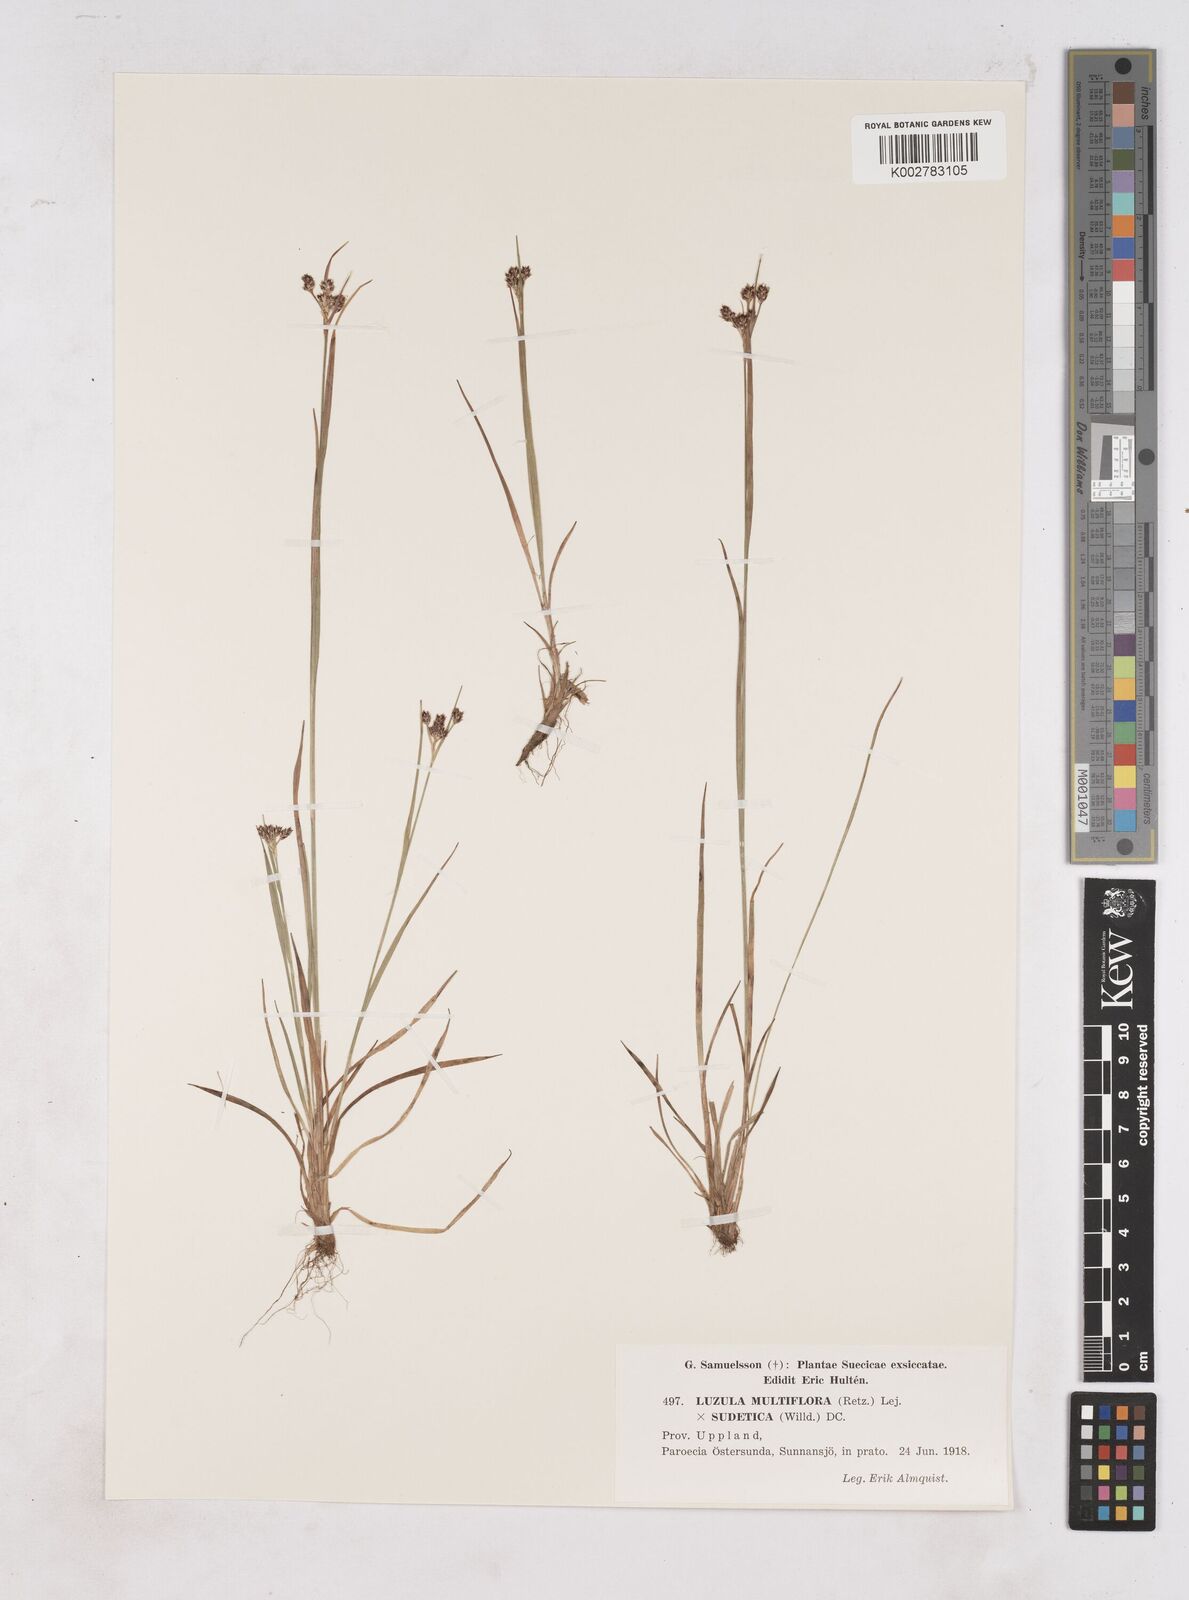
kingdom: Plantae
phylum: Tracheophyta
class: Liliopsida
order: Poales
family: Juncaceae
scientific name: Juncaceae
